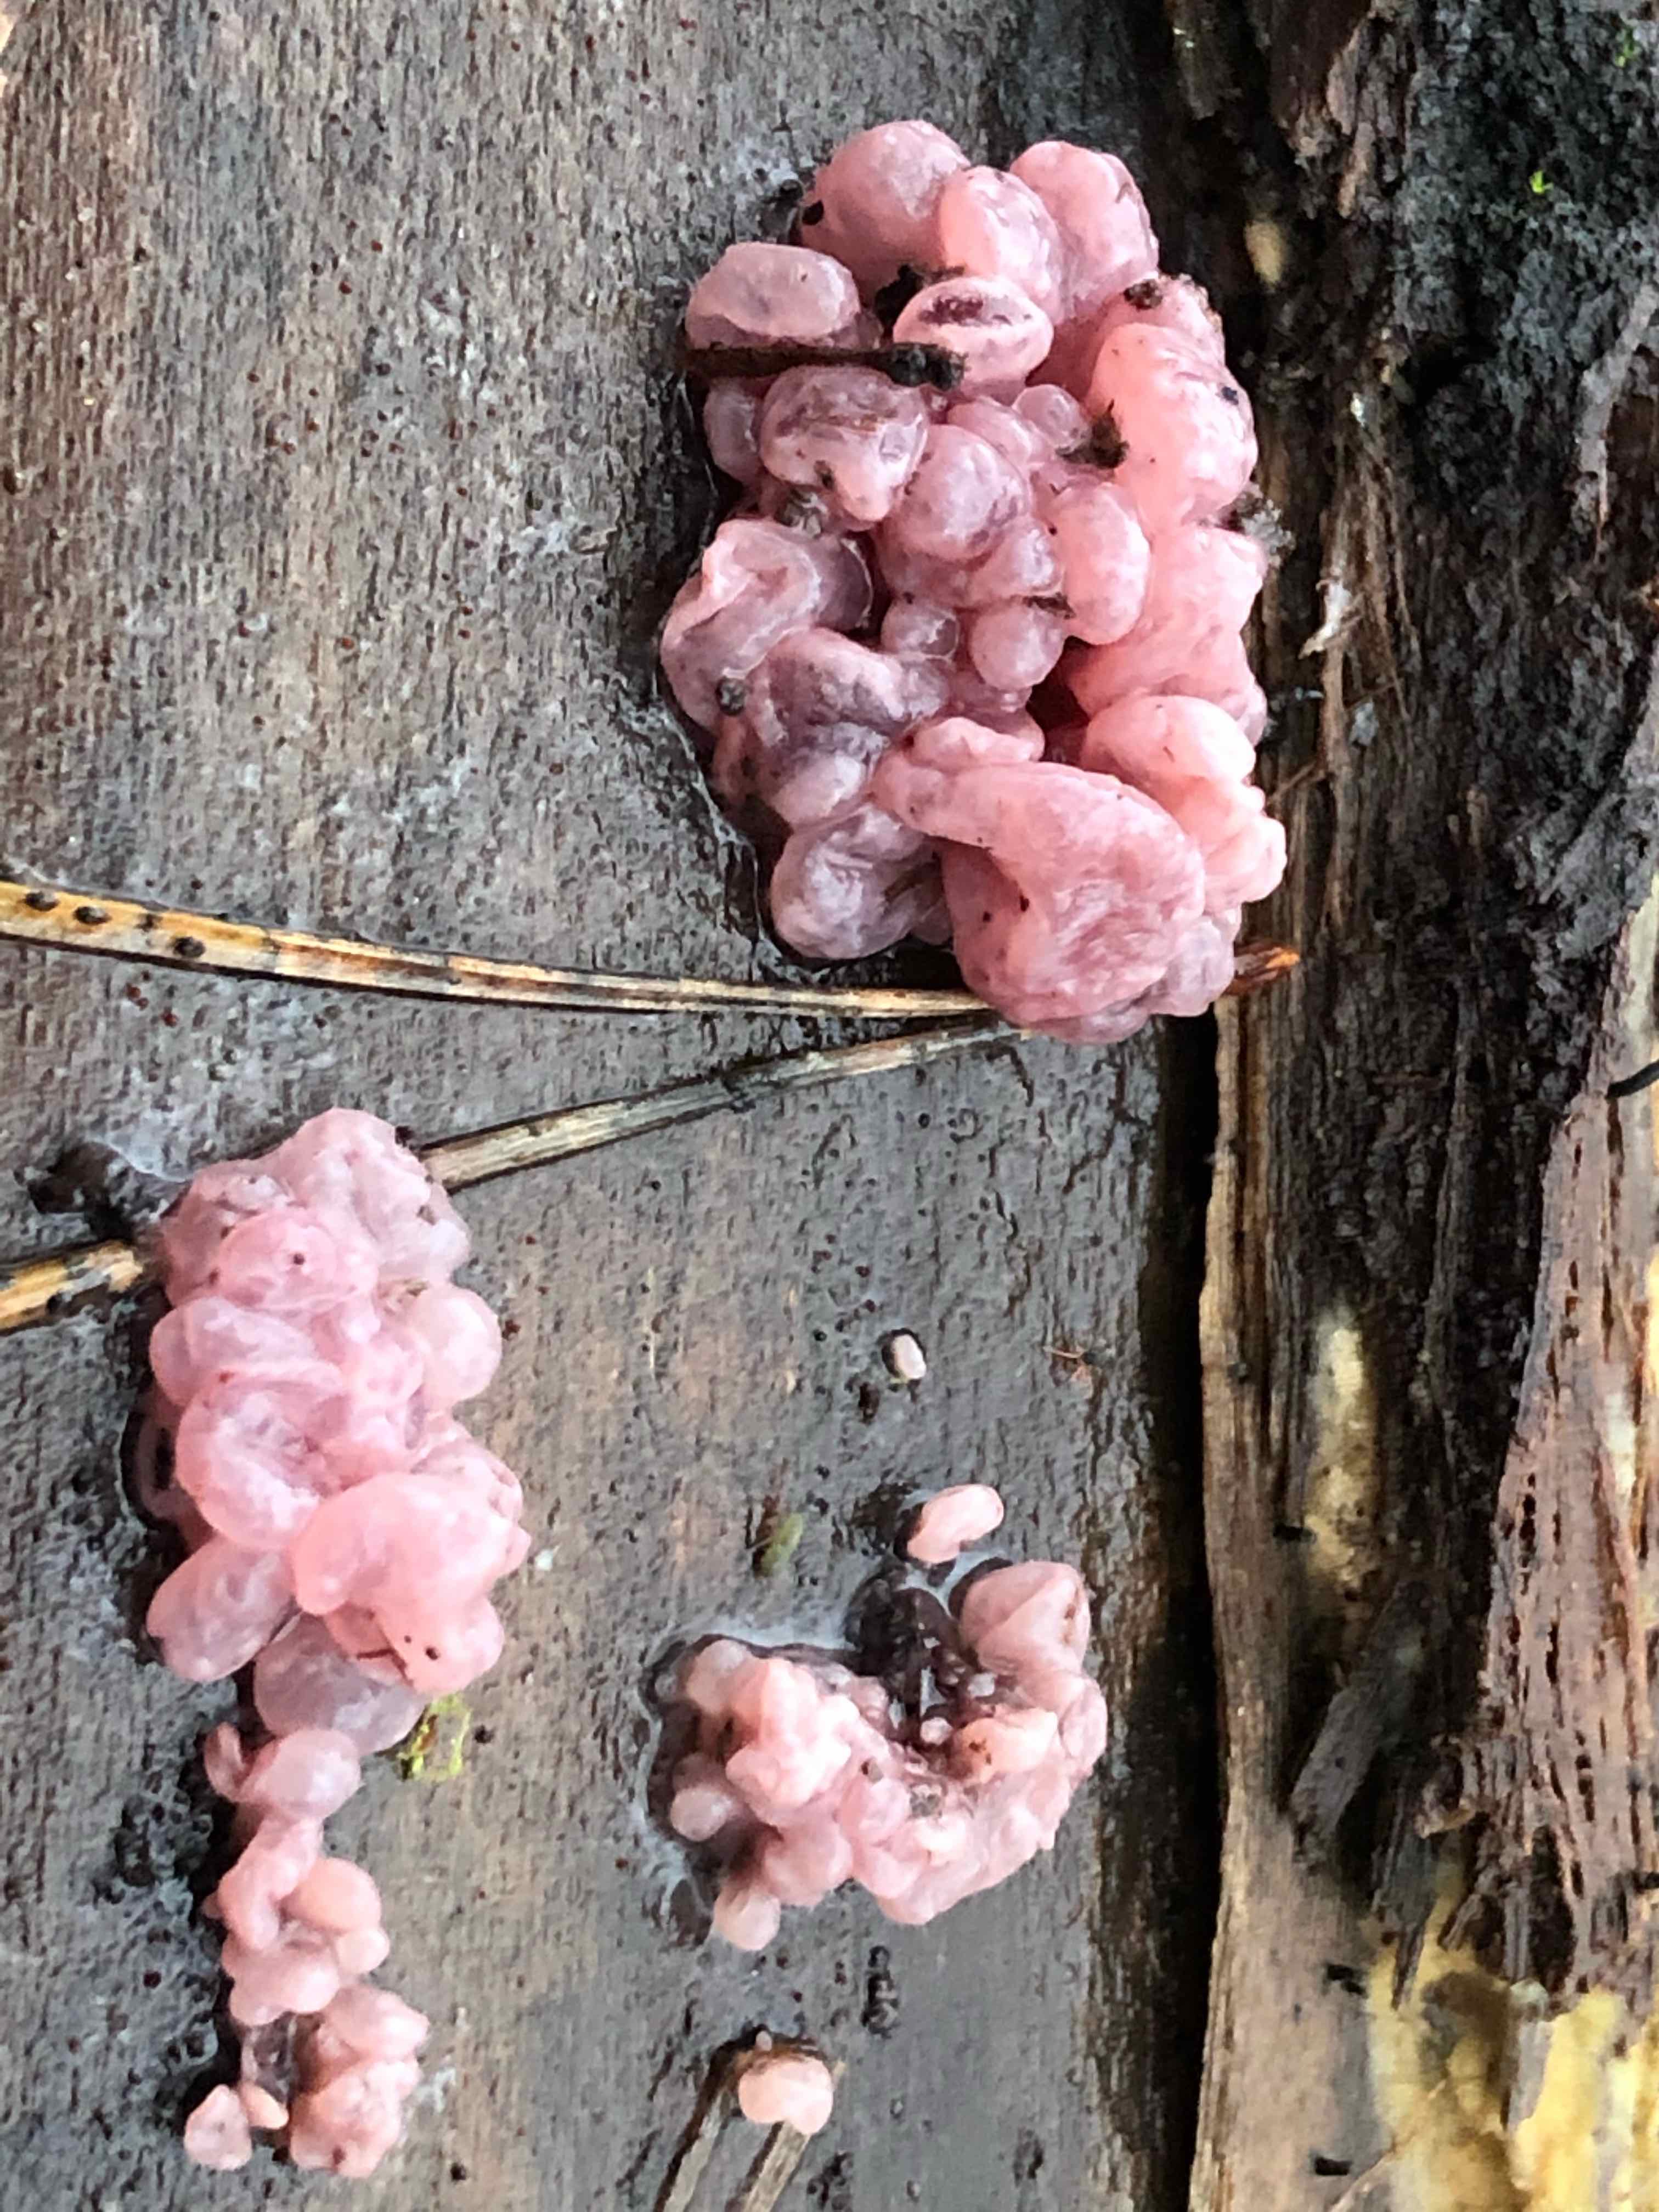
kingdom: Fungi
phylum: Ascomycota
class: Leotiomycetes
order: Helotiales
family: Gelatinodiscaceae
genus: Ascocoryne
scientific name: Ascocoryne sarcoides
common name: rødlilla sejskive
